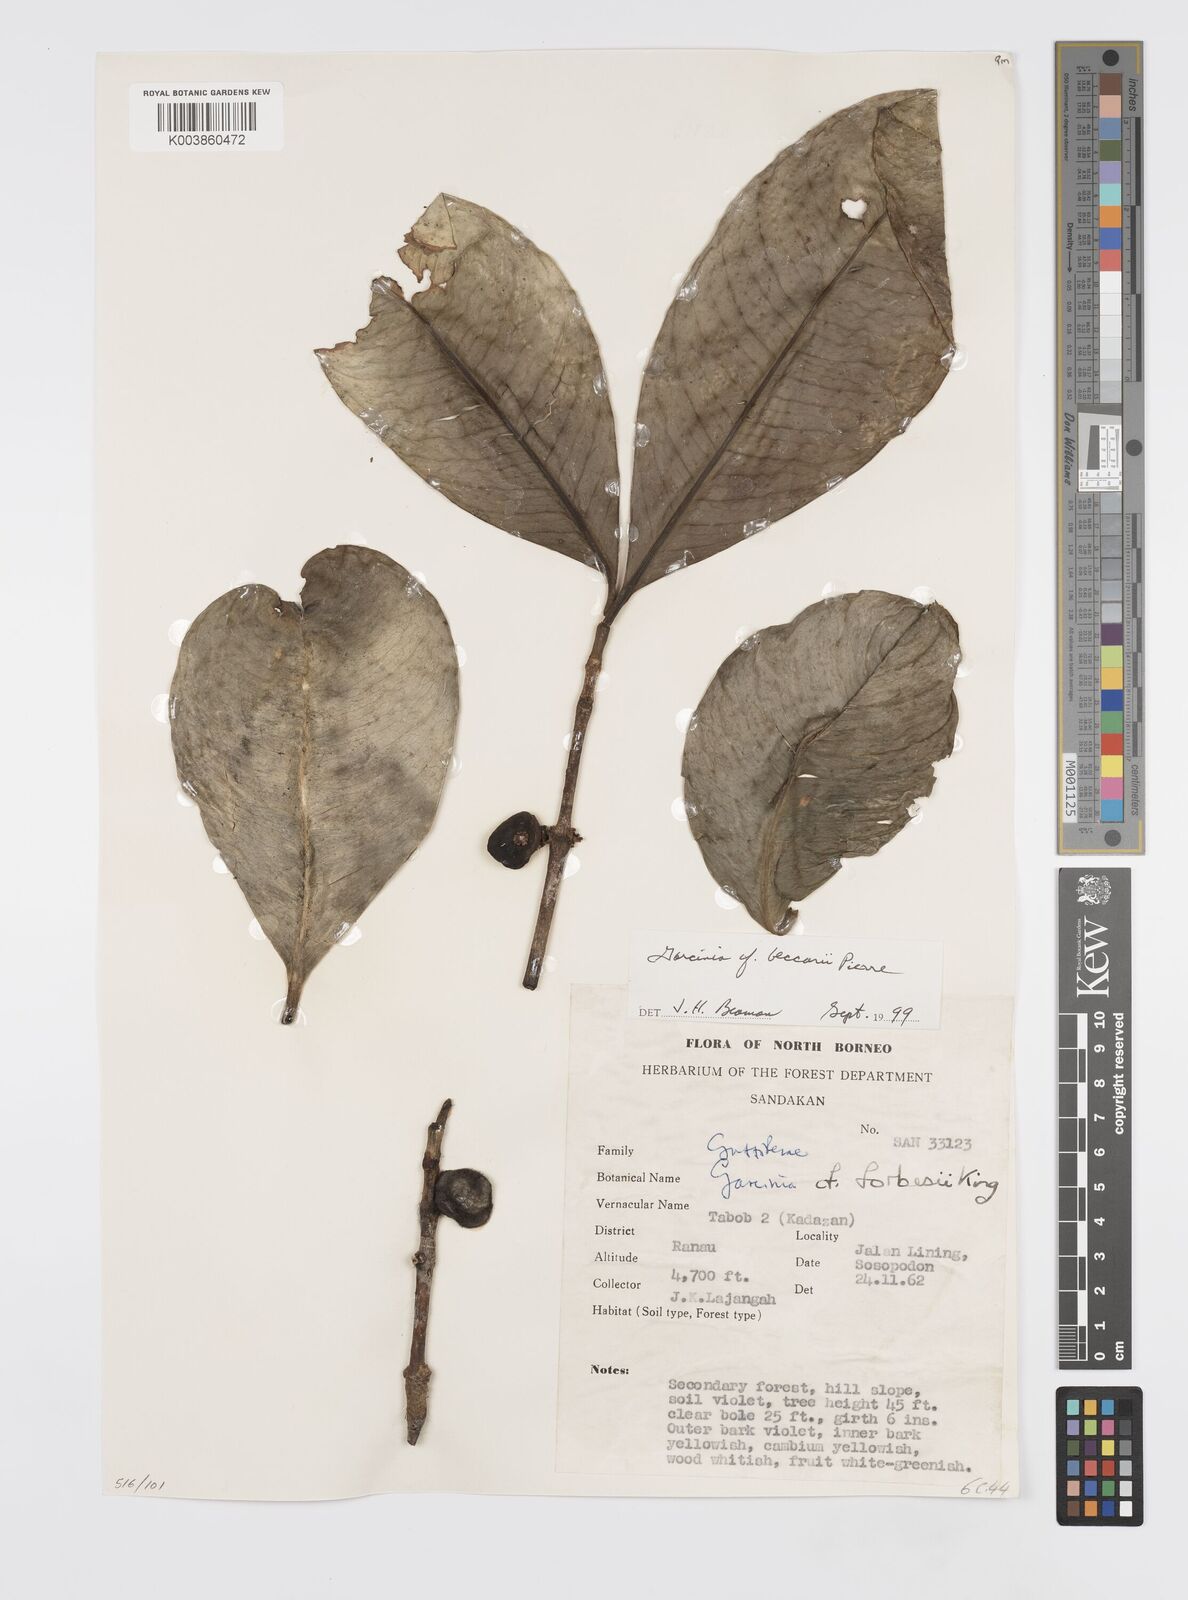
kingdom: Plantae
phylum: Tracheophyta
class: Magnoliopsida
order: Malpighiales
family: Clusiaceae
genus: Garcinia
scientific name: Garcinia beccarii
